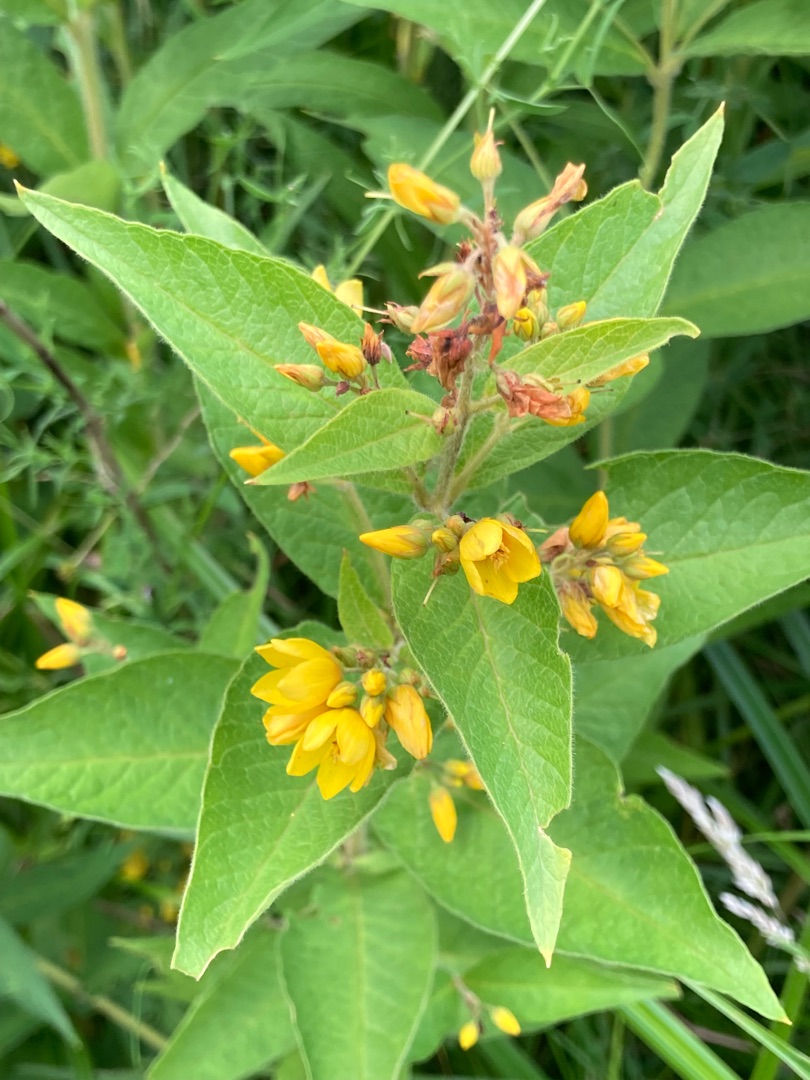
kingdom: Plantae
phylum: Tracheophyta
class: Magnoliopsida
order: Ericales
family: Primulaceae
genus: Lysimachia
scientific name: Lysimachia vulgaris
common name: Almindelig fredløs
